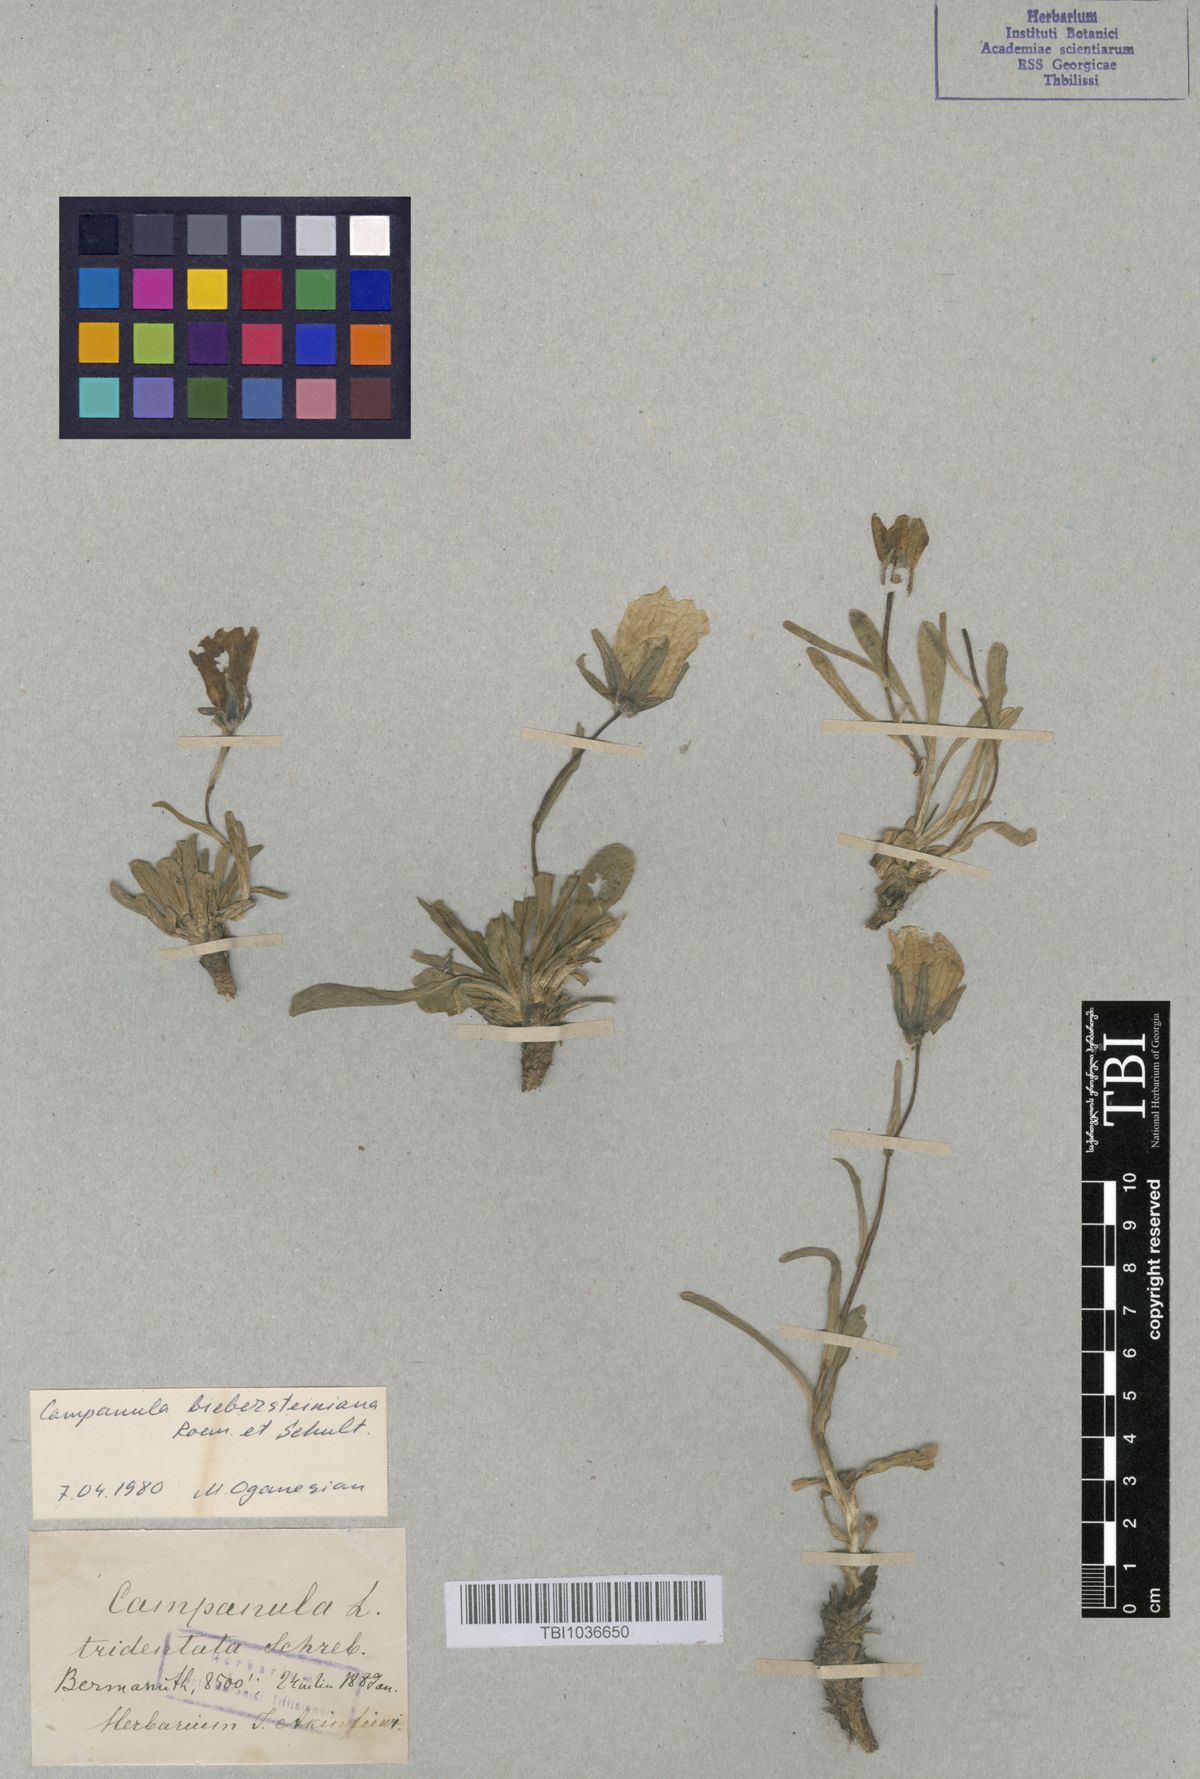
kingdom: Plantae
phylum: Tracheophyta
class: Magnoliopsida
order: Asterales
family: Campanulaceae
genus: Campanula
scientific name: Campanula tridentata
